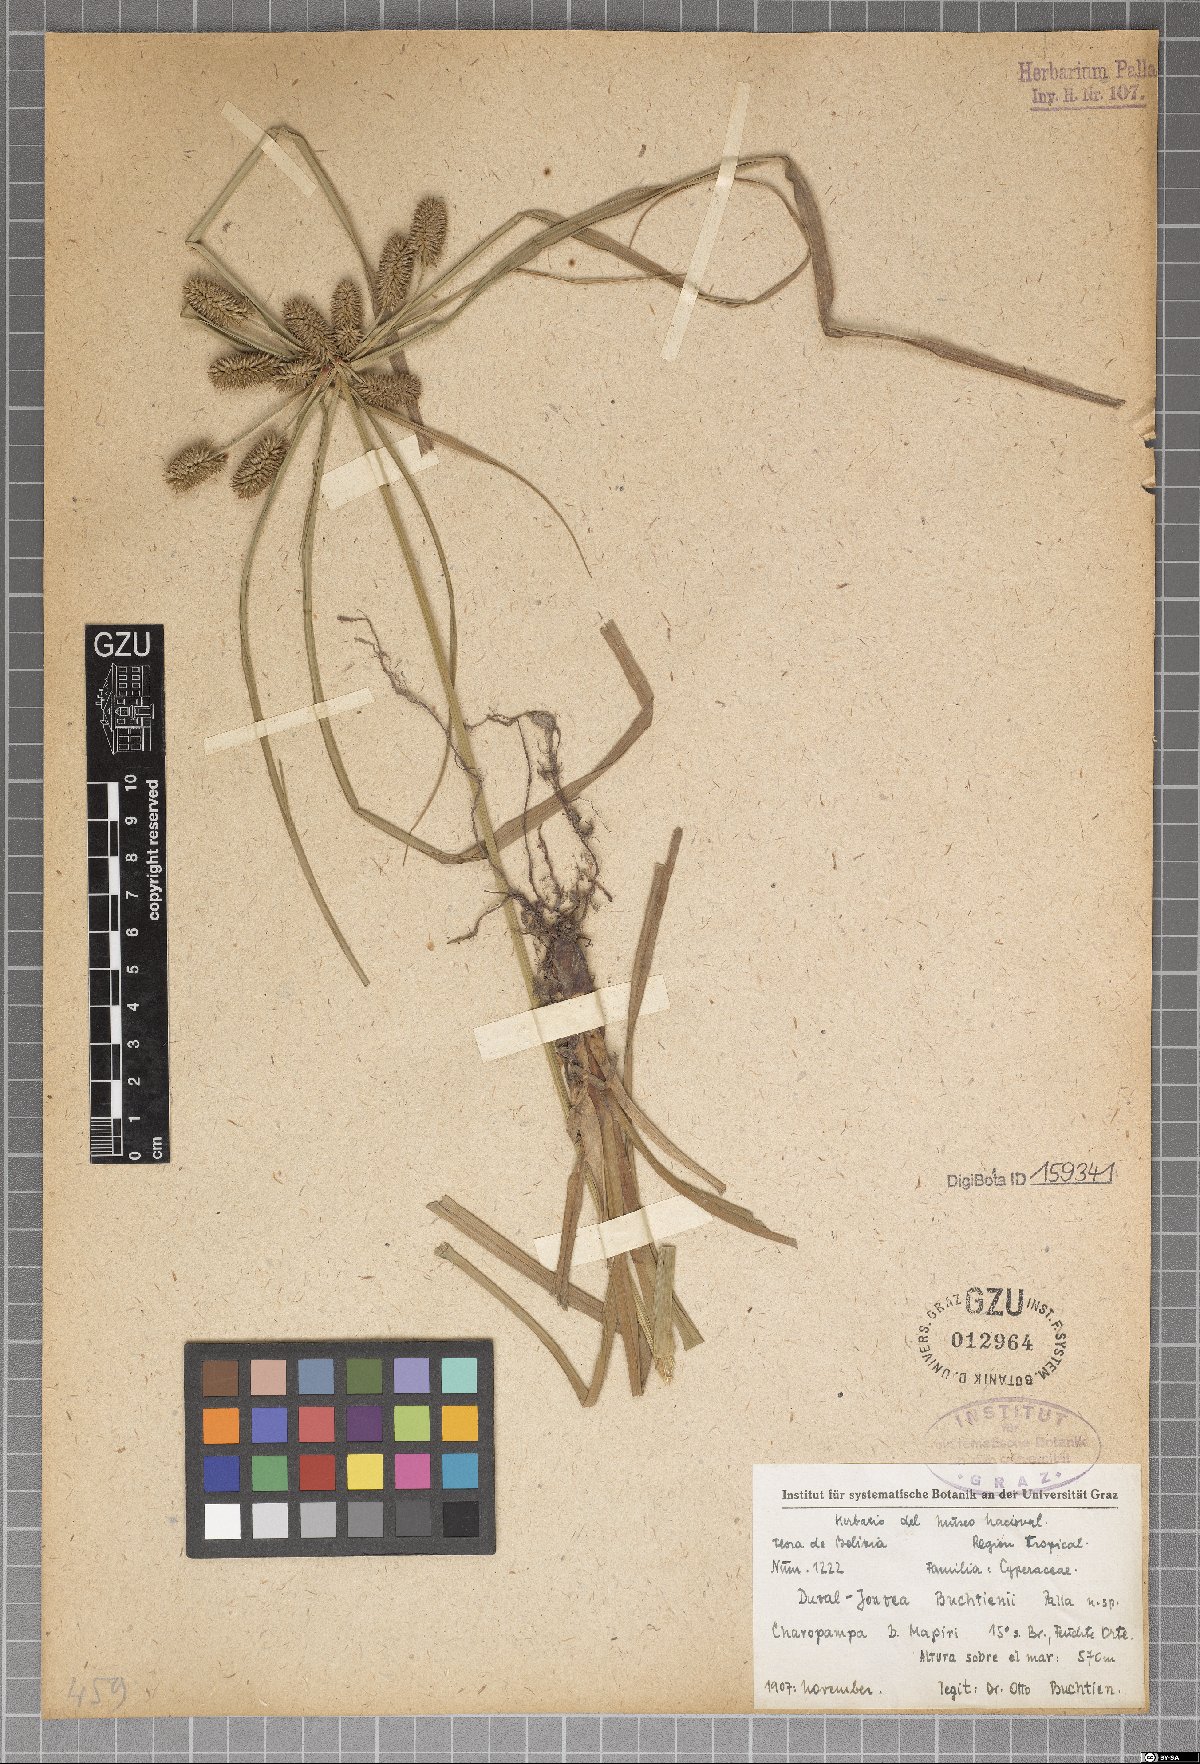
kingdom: Plantae
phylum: Tracheophyta
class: Liliopsida
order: Poales
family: Cyperaceae
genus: Cyperus
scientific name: Cyperus Duval-jouvea buchtienii
